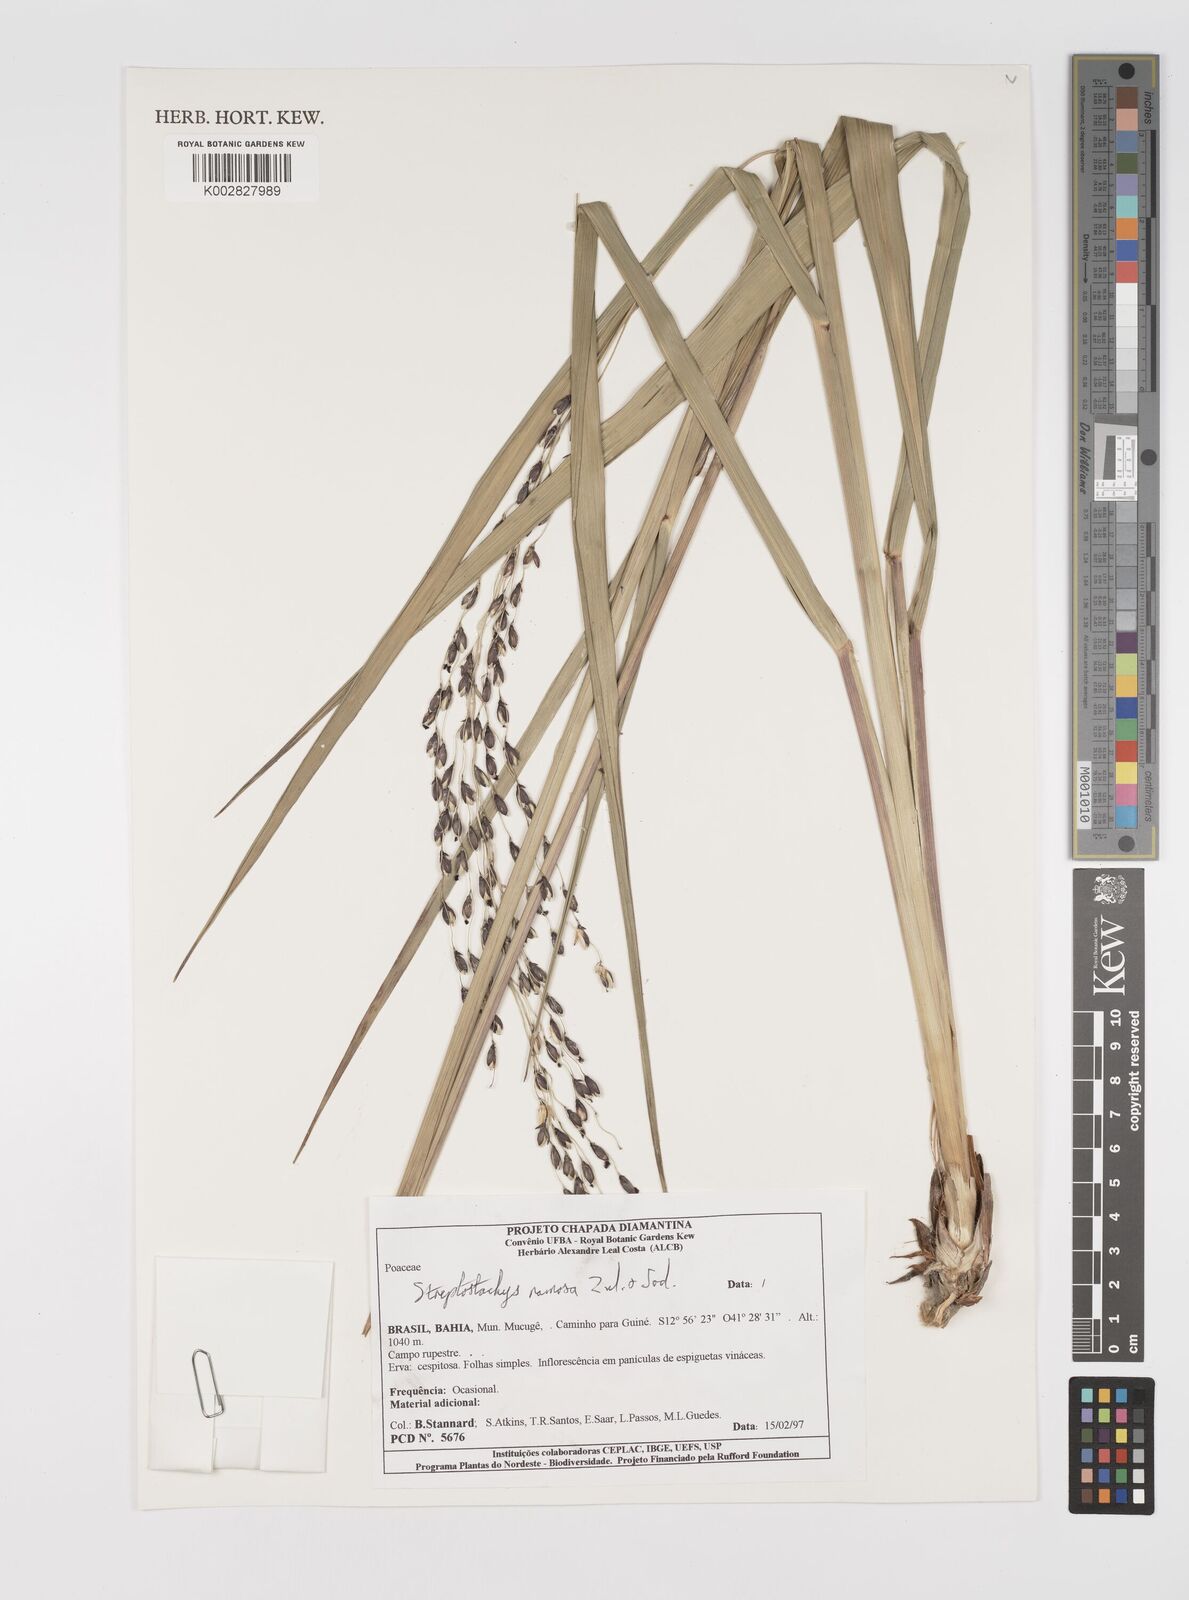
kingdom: Plantae
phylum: Tracheophyta
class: Liliopsida
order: Poales
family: Poaceae
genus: Oncorachis
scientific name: Oncorachis ramosa
